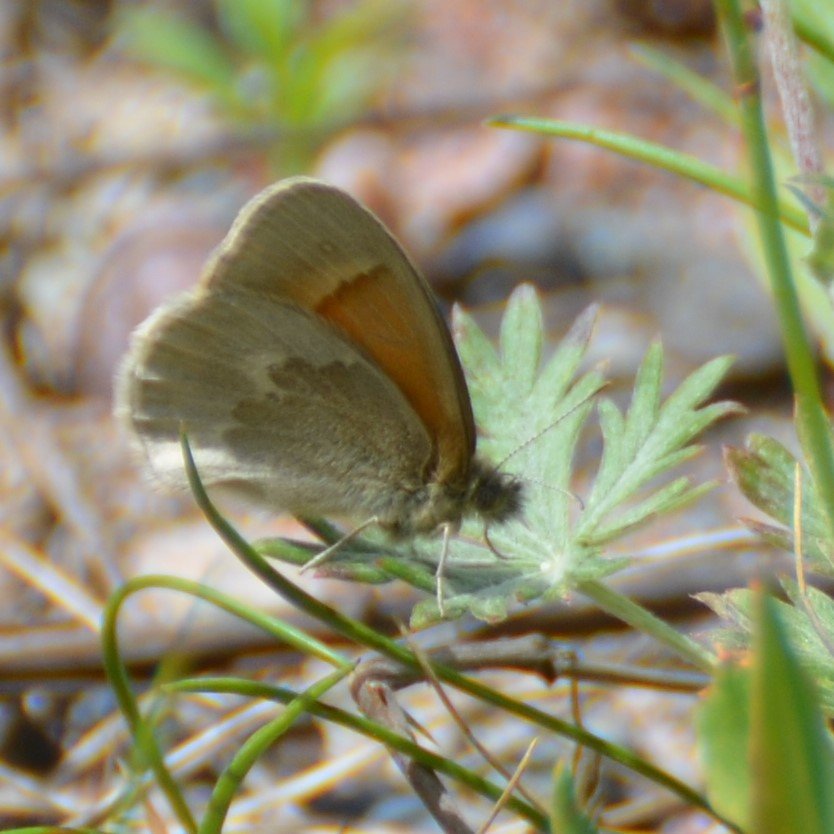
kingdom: Animalia
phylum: Arthropoda
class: Insecta
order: Lepidoptera
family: Nymphalidae
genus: Coenonympha
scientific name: Coenonympha tullia
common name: Large Heath
